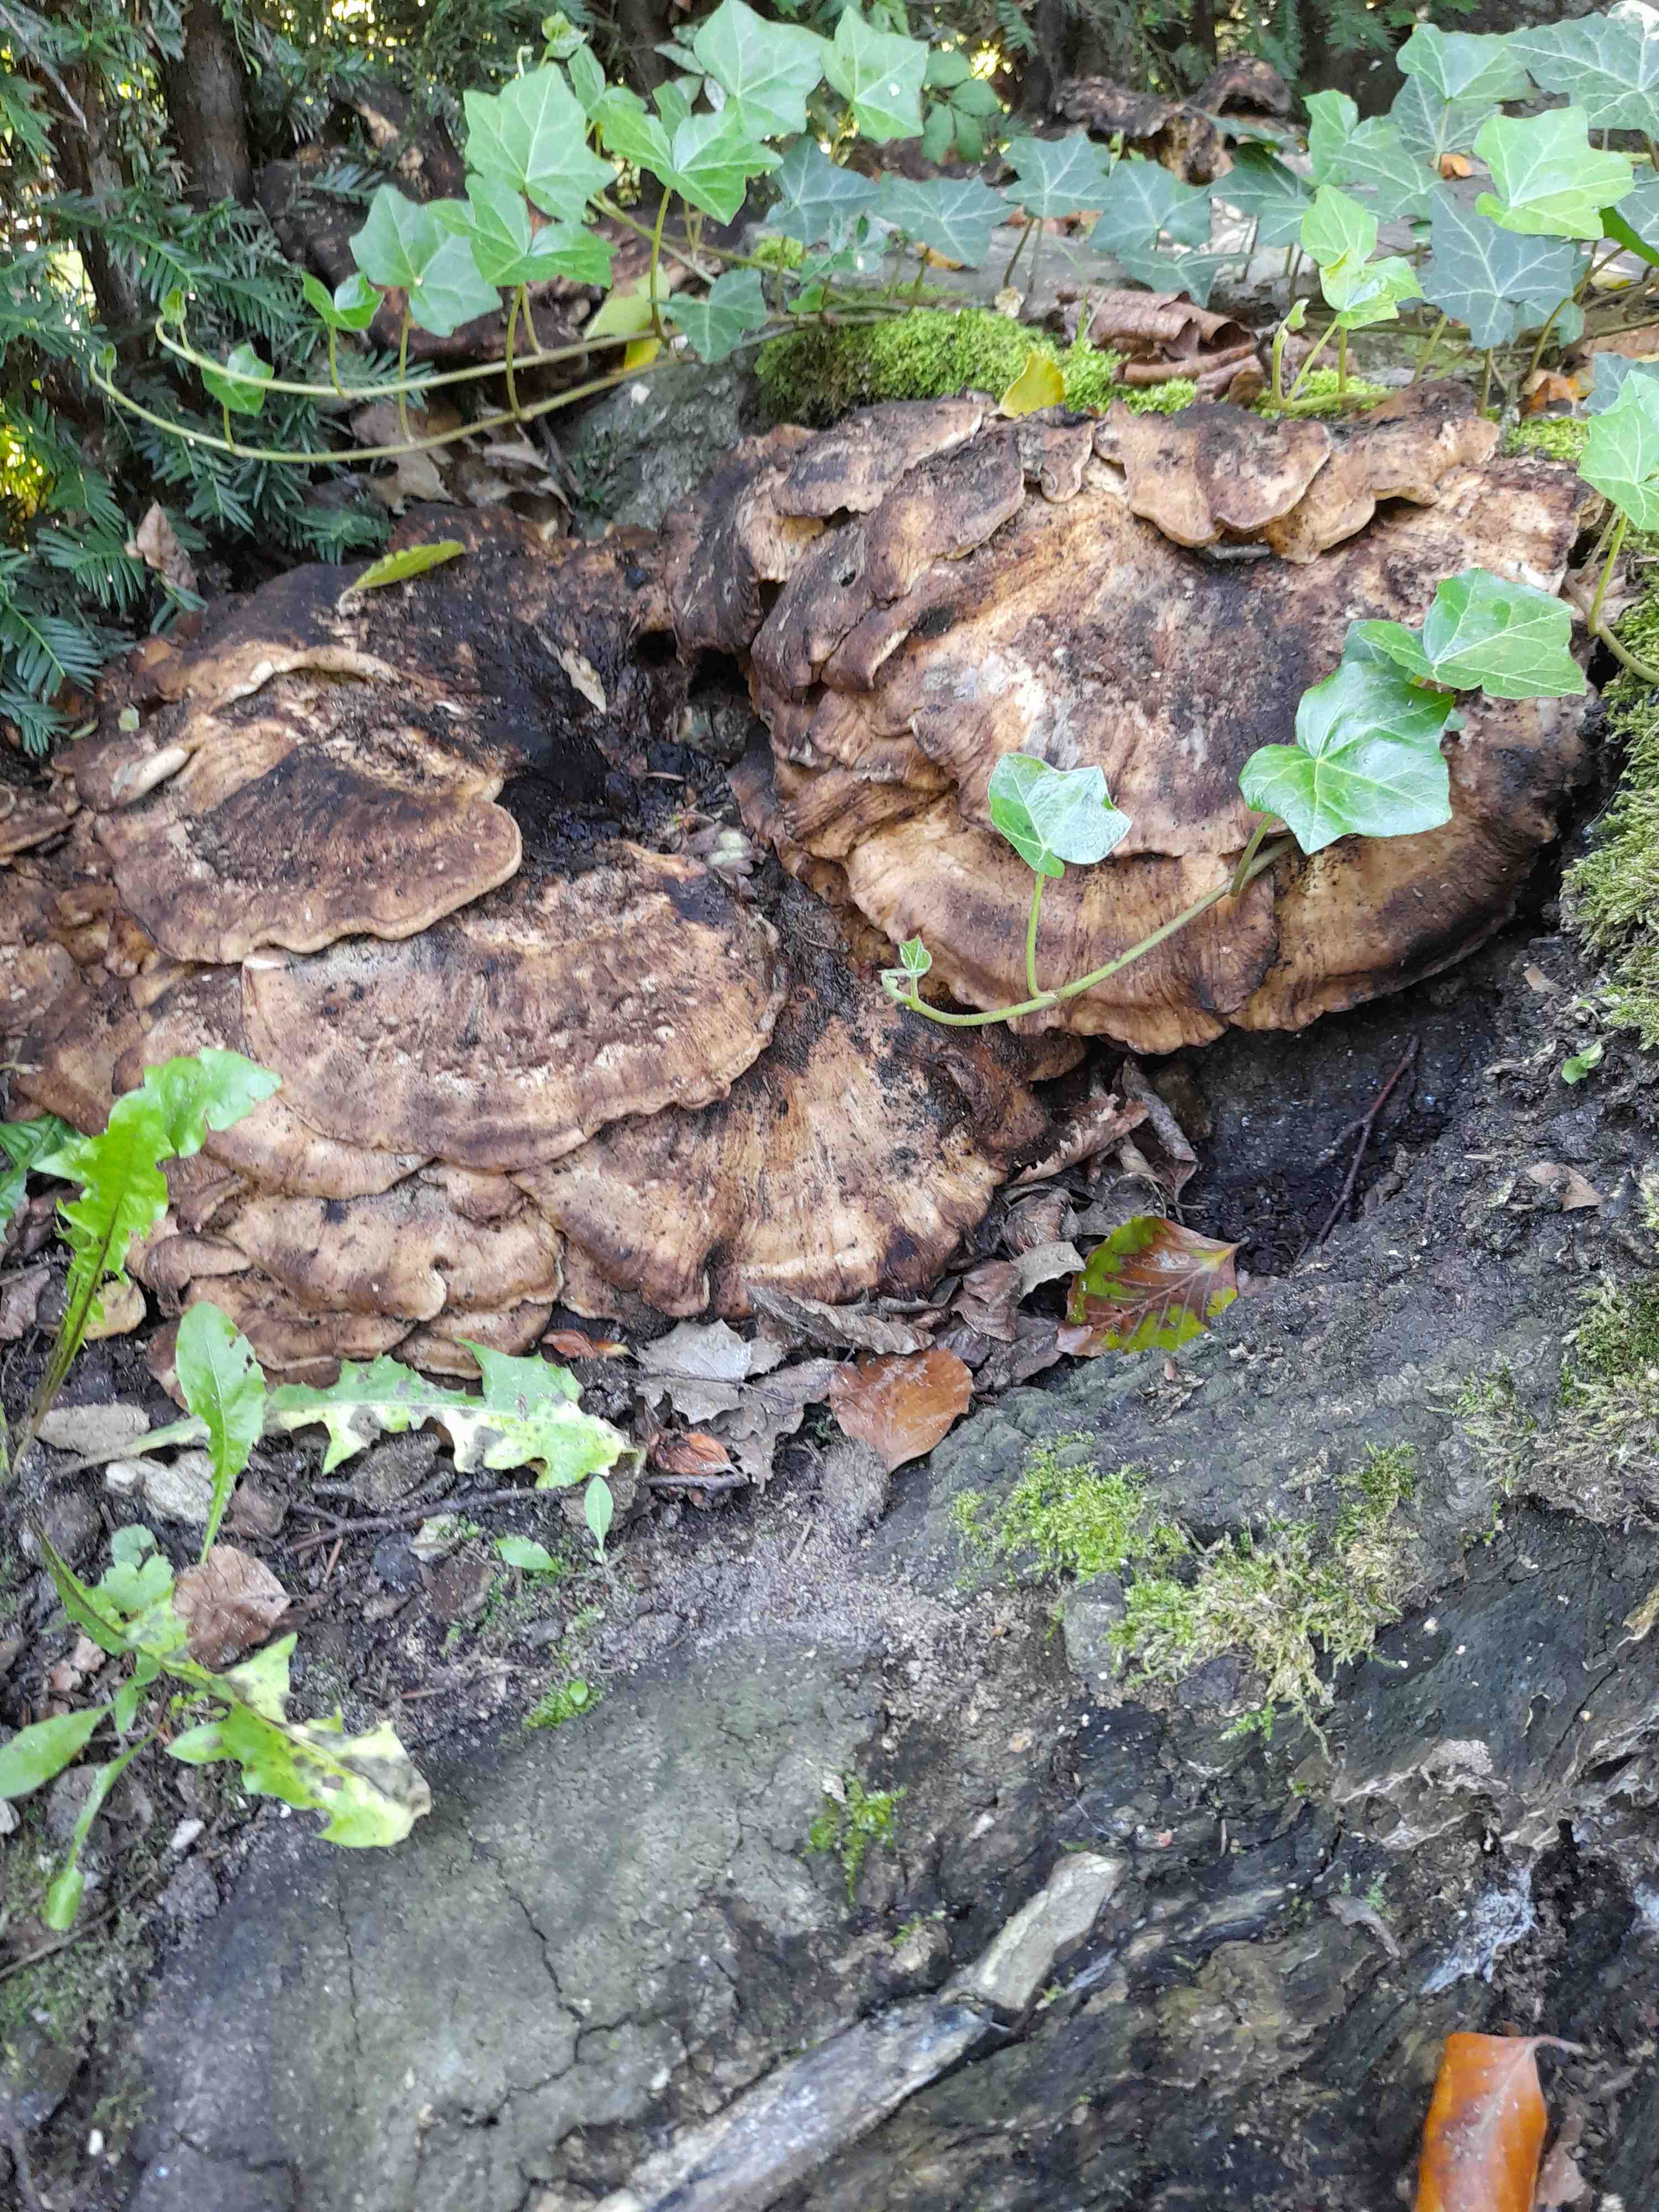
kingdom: Fungi
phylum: Basidiomycota
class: Agaricomycetes
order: Polyporales
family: Meripilaceae
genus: Meripilus
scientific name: Meripilus giganteus
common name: kæmpeporesvamp
